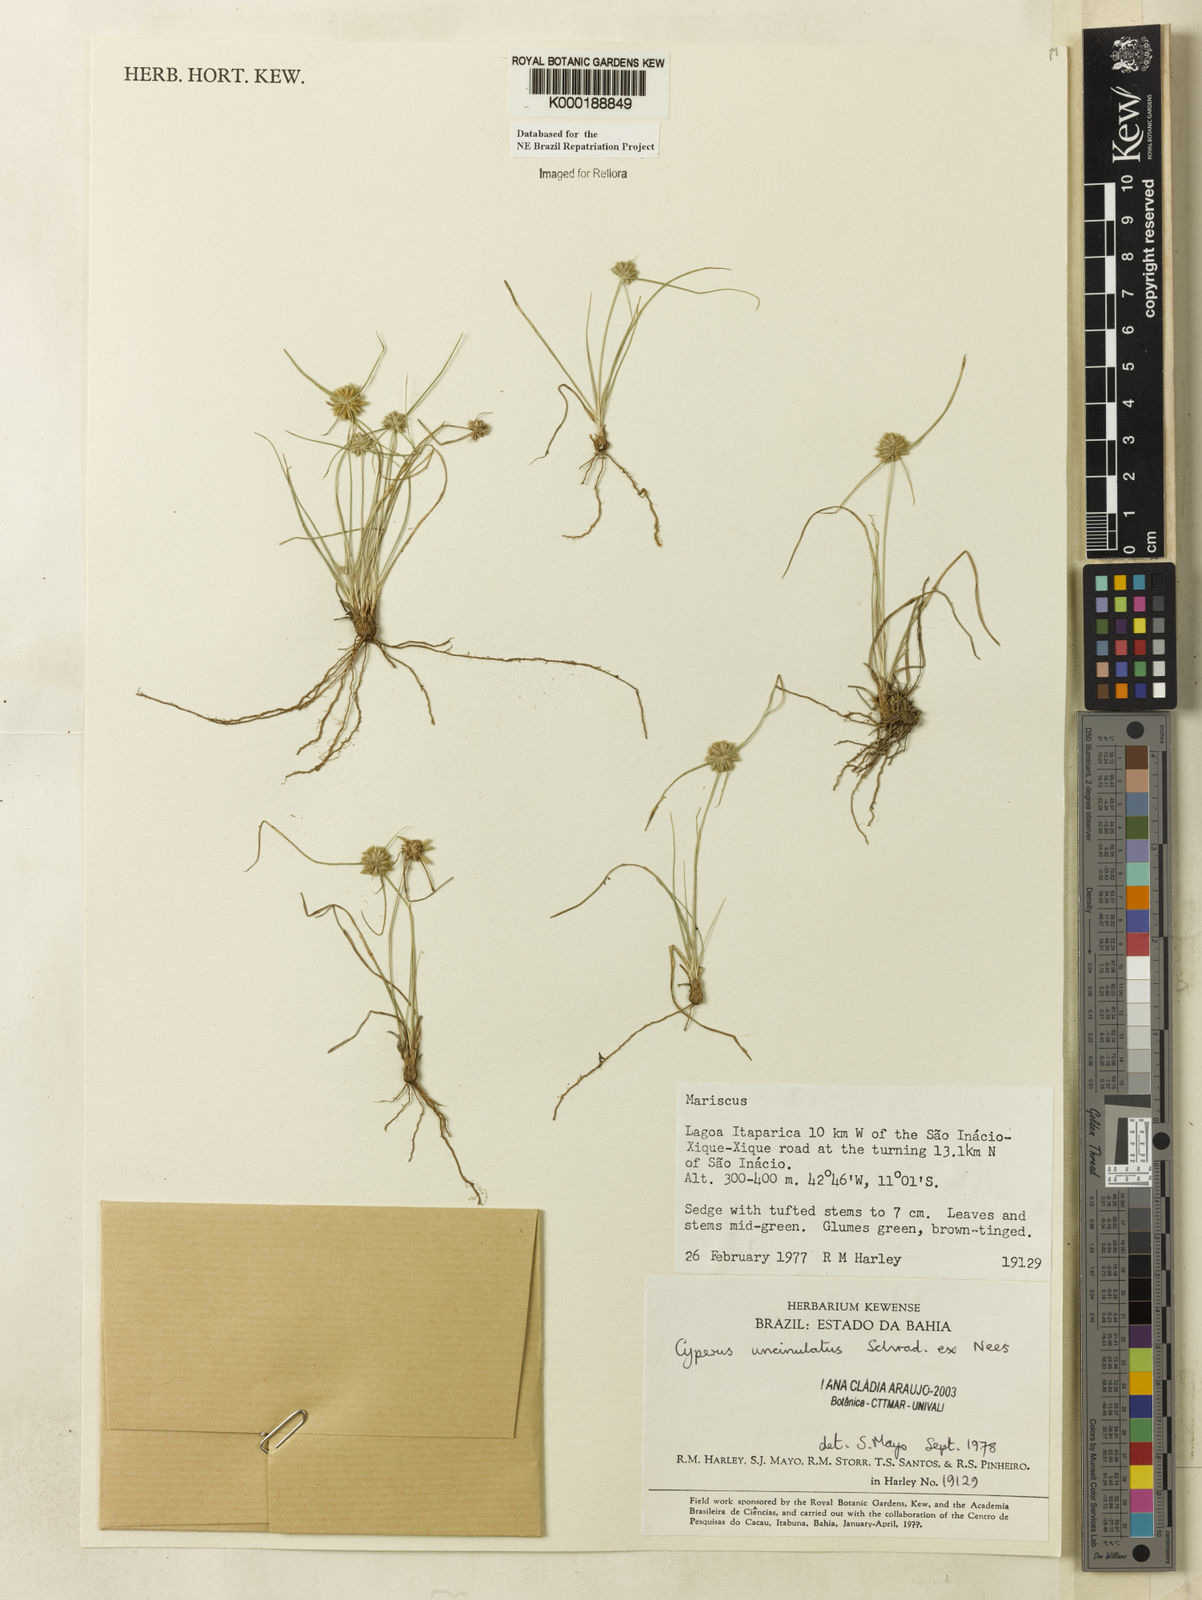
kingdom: Plantae
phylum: Tracheophyta
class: Liliopsida
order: Poales
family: Cyperaceae
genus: Cyperus
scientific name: Cyperus uncinulatus
